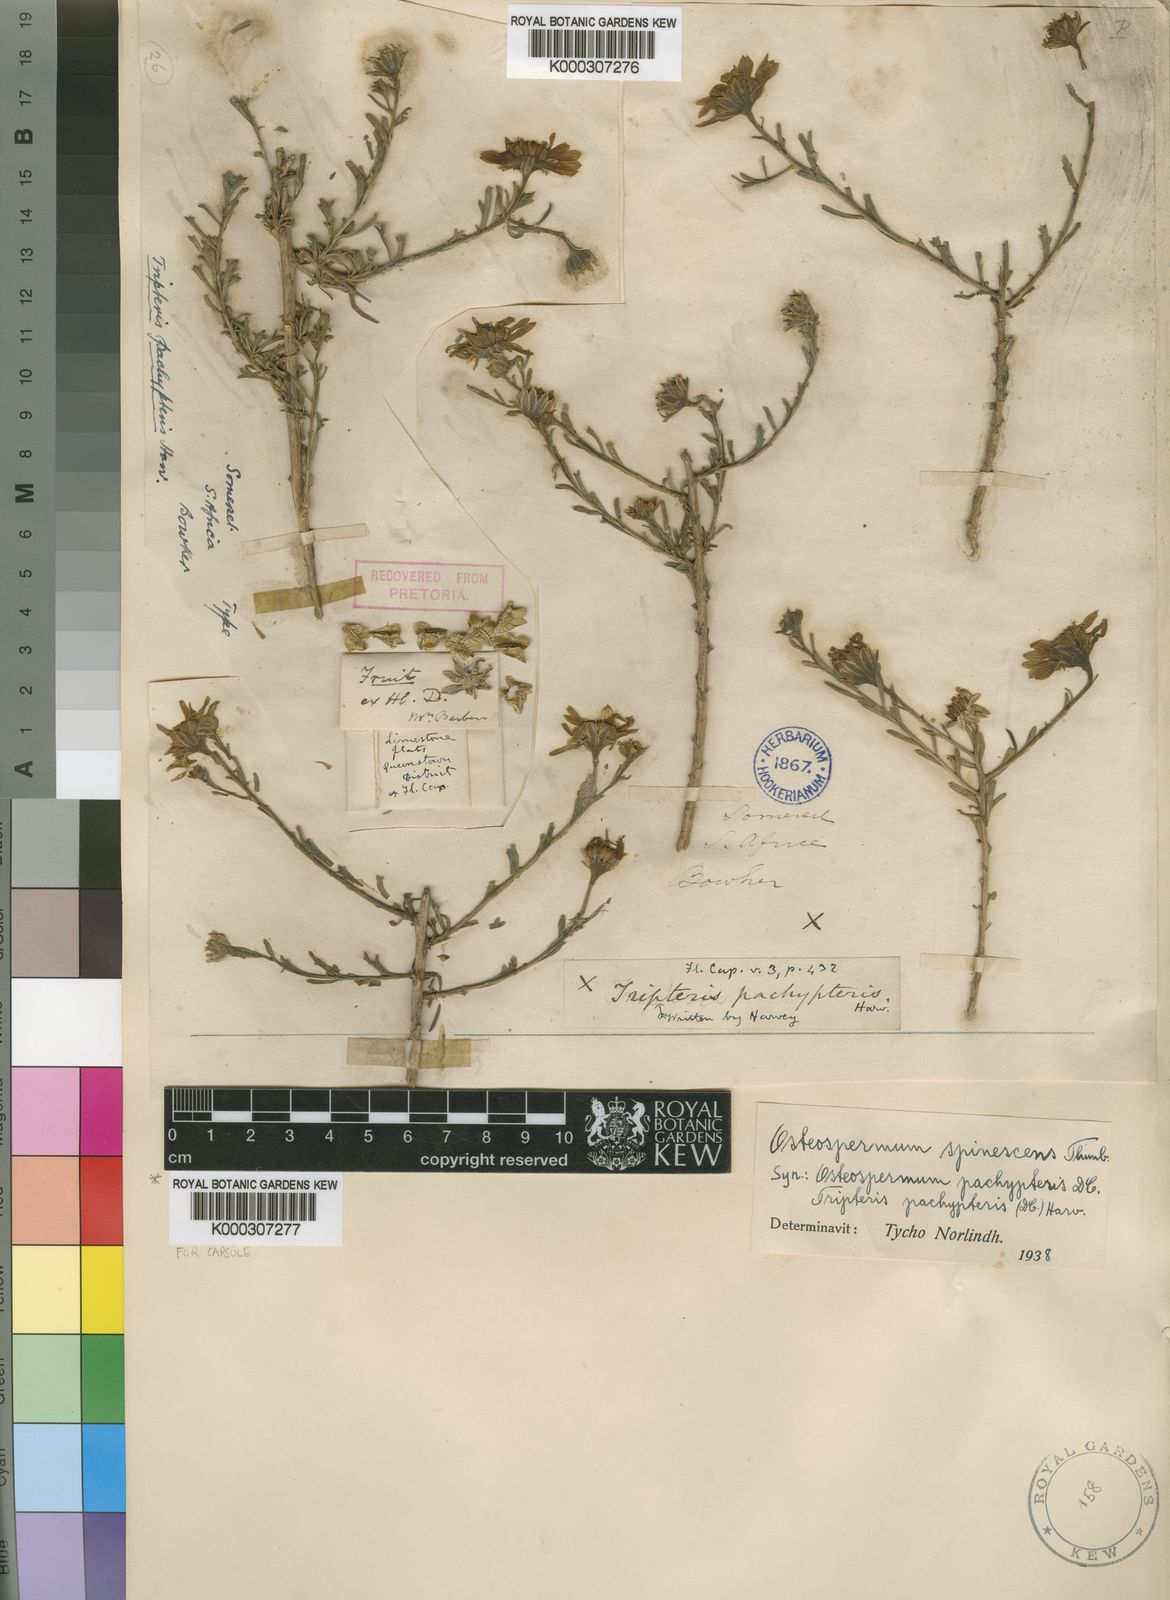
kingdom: Plantae
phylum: Tracheophyta
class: Magnoliopsida
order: Asterales
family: Asteraceae
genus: Osteospermum
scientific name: Osteospermum spinescens
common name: Sunflower
